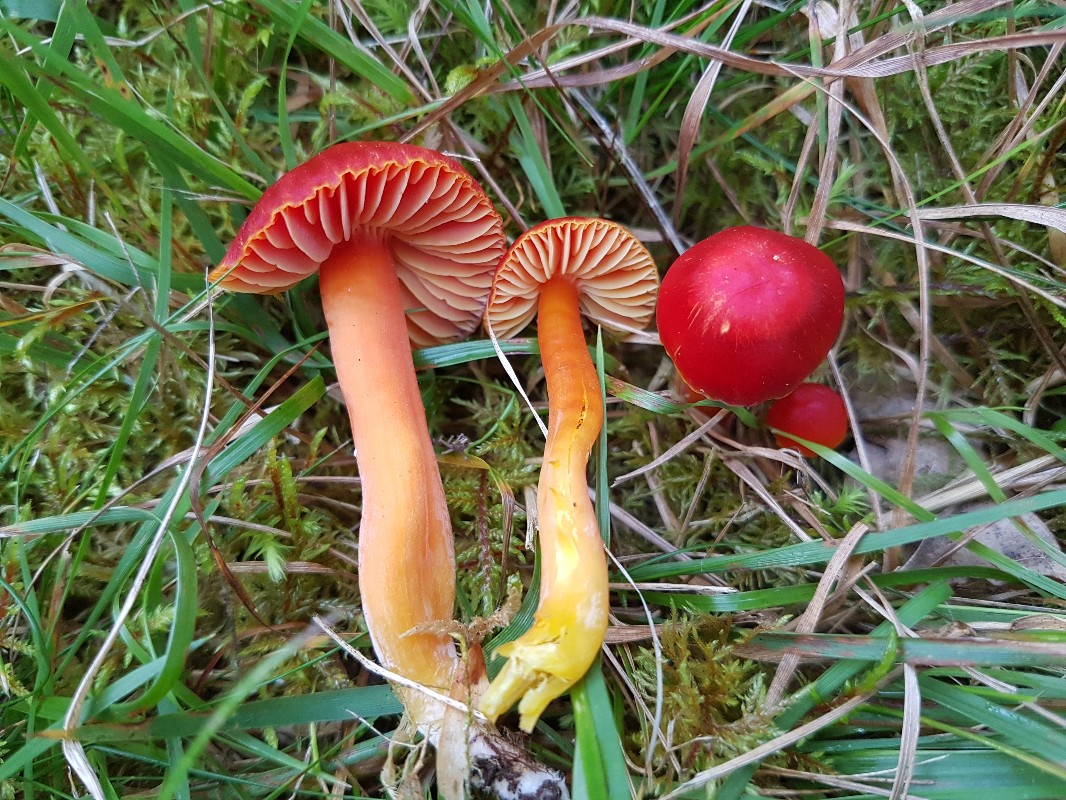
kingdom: Fungi
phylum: Basidiomycota
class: Agaricomycetes
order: Agaricales
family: Hygrophoraceae
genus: Hygrocybe
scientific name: Hygrocybe coccinea
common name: cinnober-vokshat
